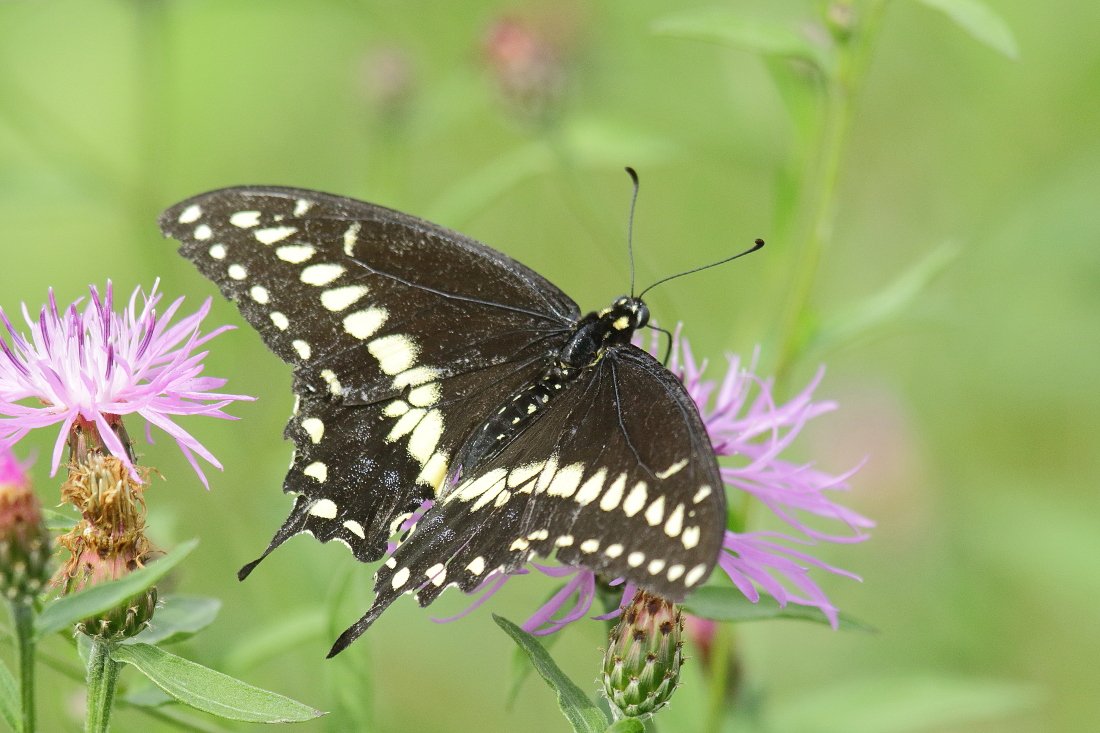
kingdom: Animalia
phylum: Arthropoda
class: Insecta
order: Lepidoptera
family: Papilionidae
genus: Papilio
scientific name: Papilio polyxenes
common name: Black Swallowtail
